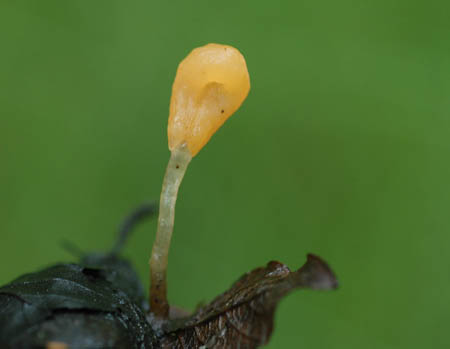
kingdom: Fungi
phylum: Ascomycota
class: Leotiomycetes
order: Helotiales
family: Cenangiaceae
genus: Mitrula
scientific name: Mitrula paludosa
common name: gul nøkketunge
